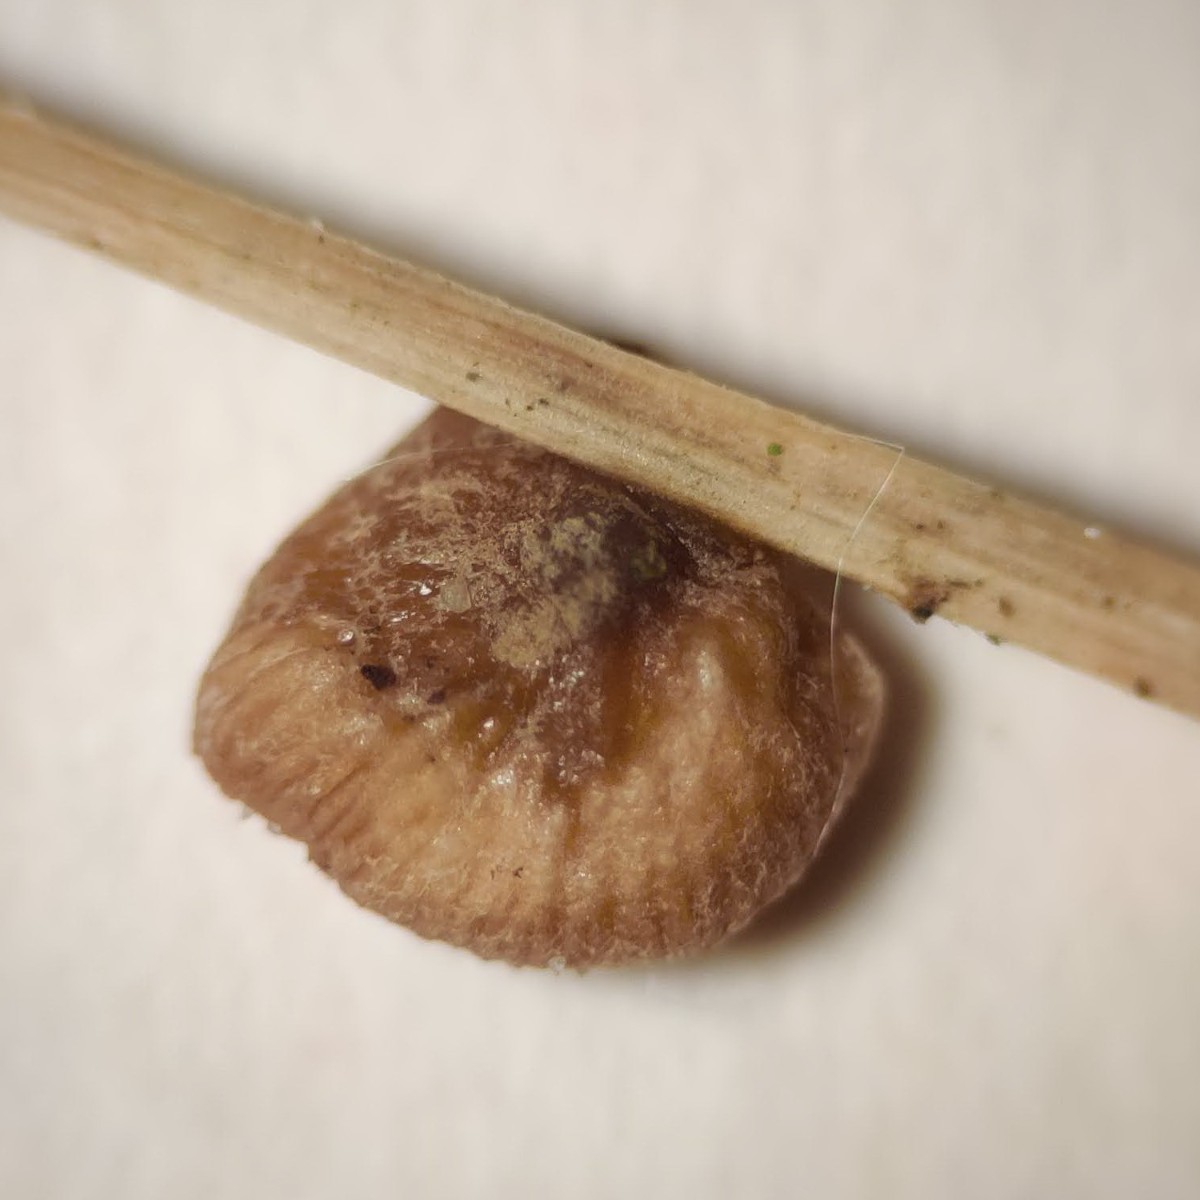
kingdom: Fungi
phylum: Basidiomycota
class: Agaricomycetes
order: Agaricales
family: Strophariaceae
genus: Deconica
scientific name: Deconica phillipsii
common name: almindelig stråhat
